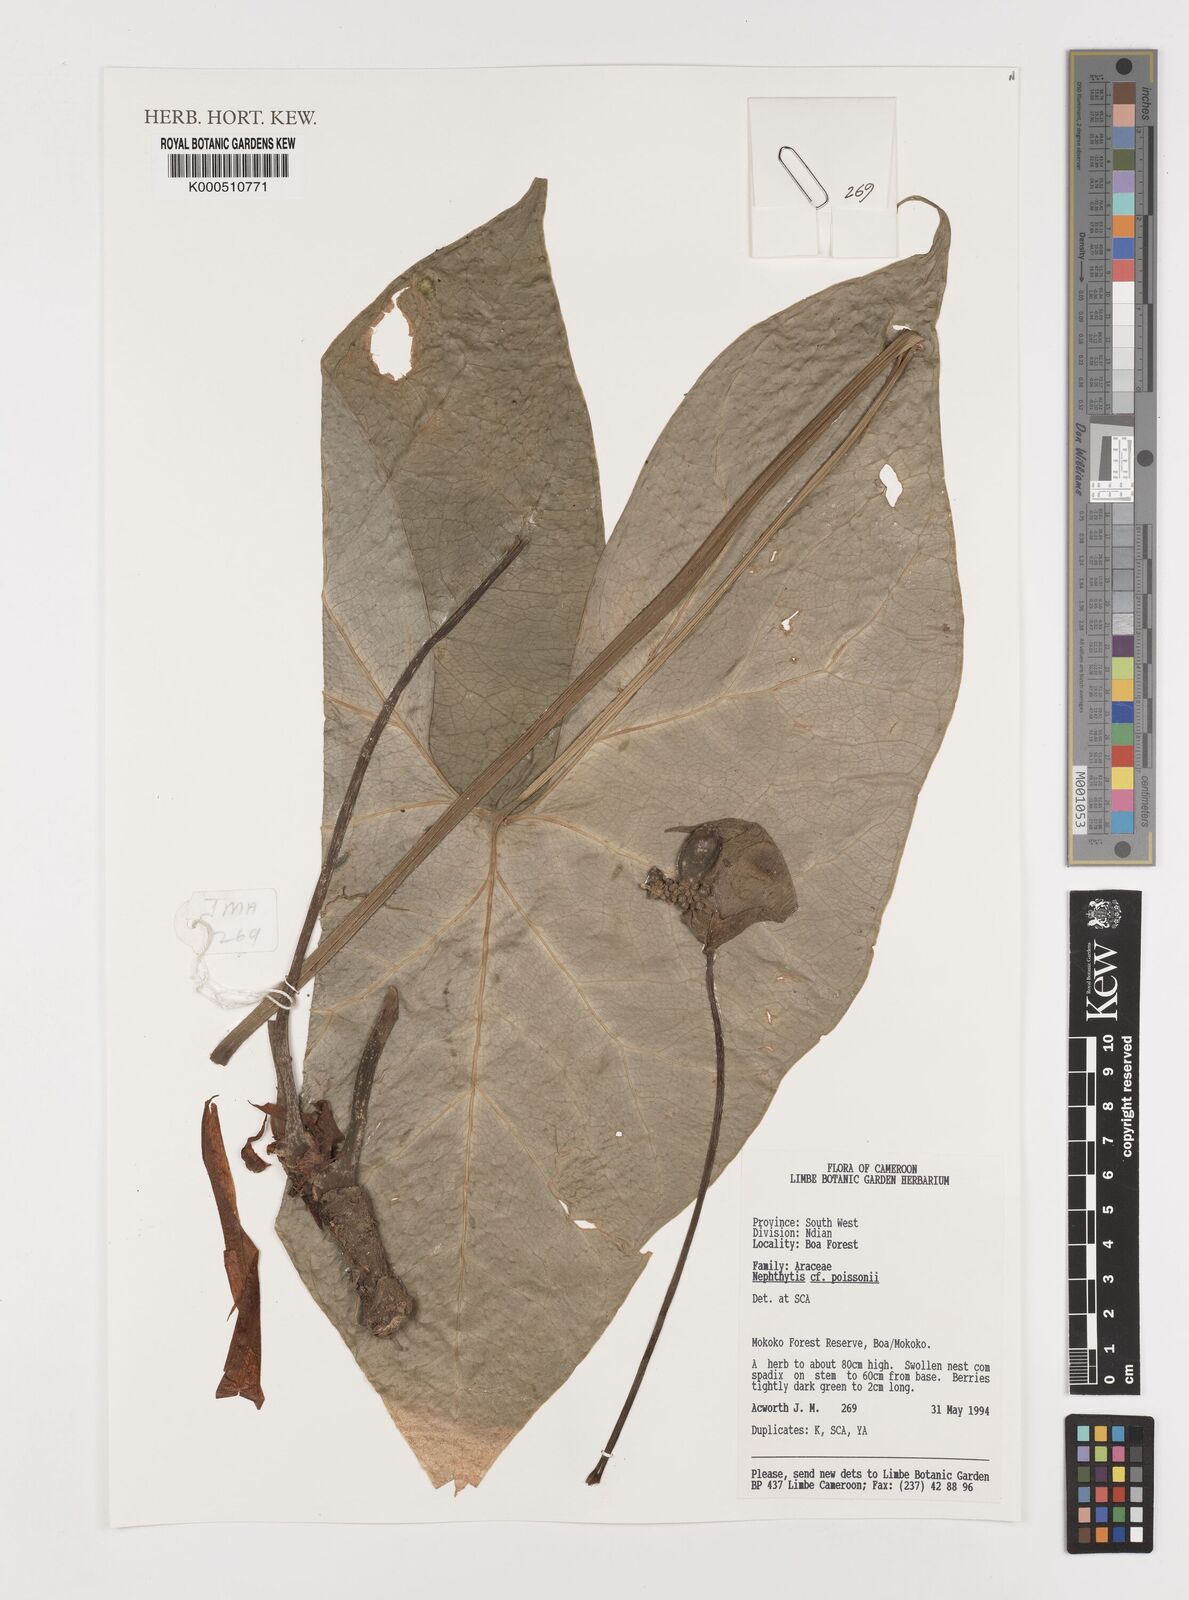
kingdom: Plantae
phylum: Tracheophyta
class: Liliopsida
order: Alismatales
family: Araceae
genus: Nephthytis
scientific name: Nephthytis poissonii
